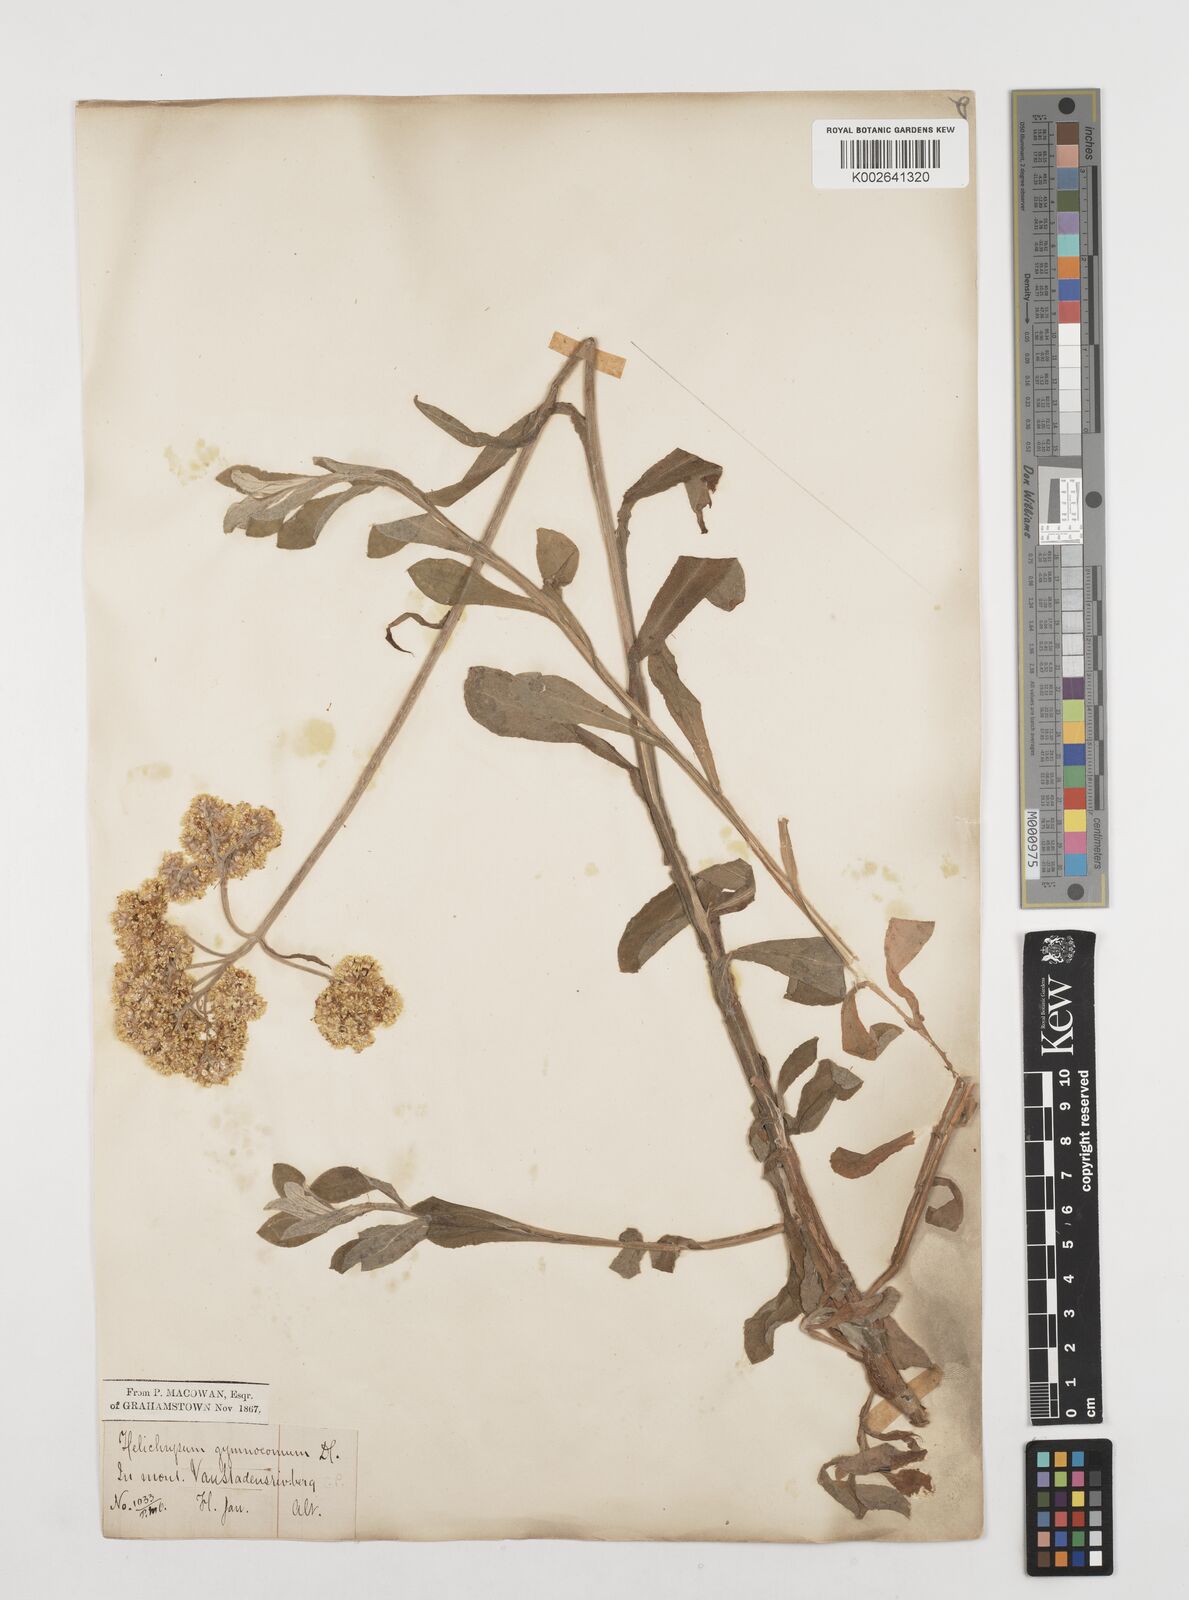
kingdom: Plantae
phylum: Tracheophyta
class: Magnoliopsida
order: Asterales
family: Asteraceae
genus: Helichrysum
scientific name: Helichrysum odoratissimum
